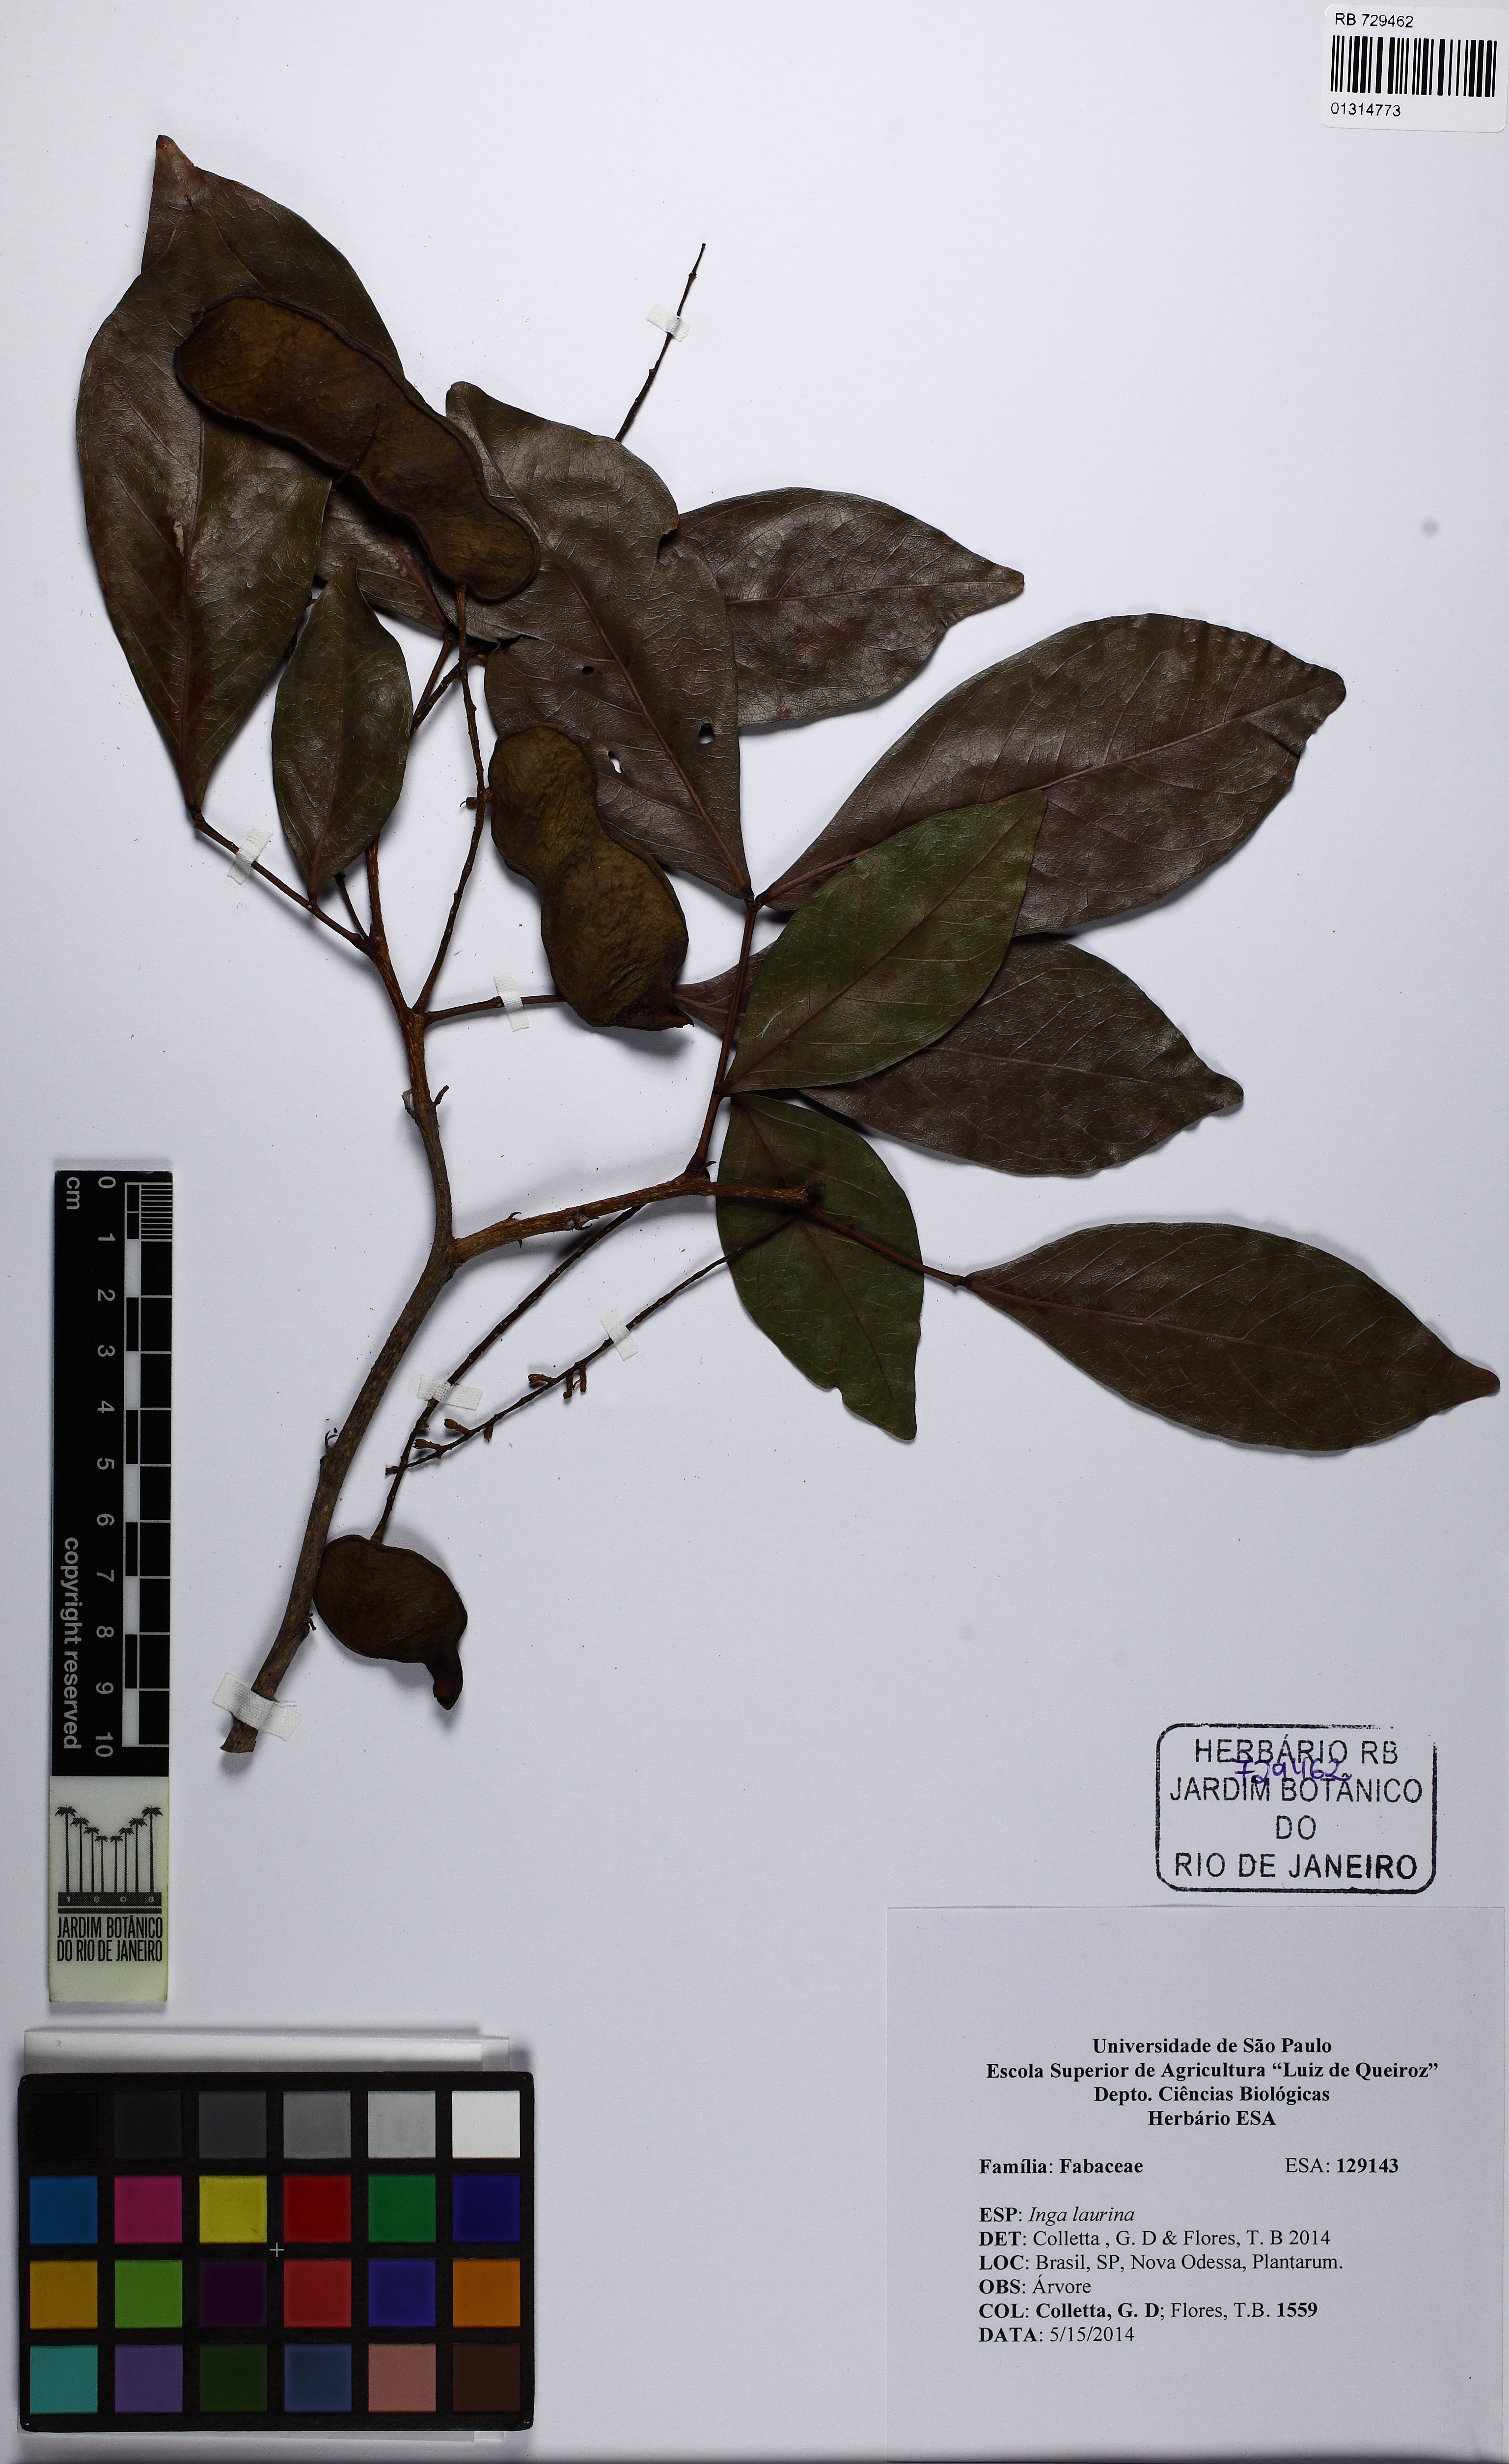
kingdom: Plantae
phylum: Tracheophyta
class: Magnoliopsida
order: Fabales
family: Fabaceae
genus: Inga
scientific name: Inga laurina
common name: Red wood
